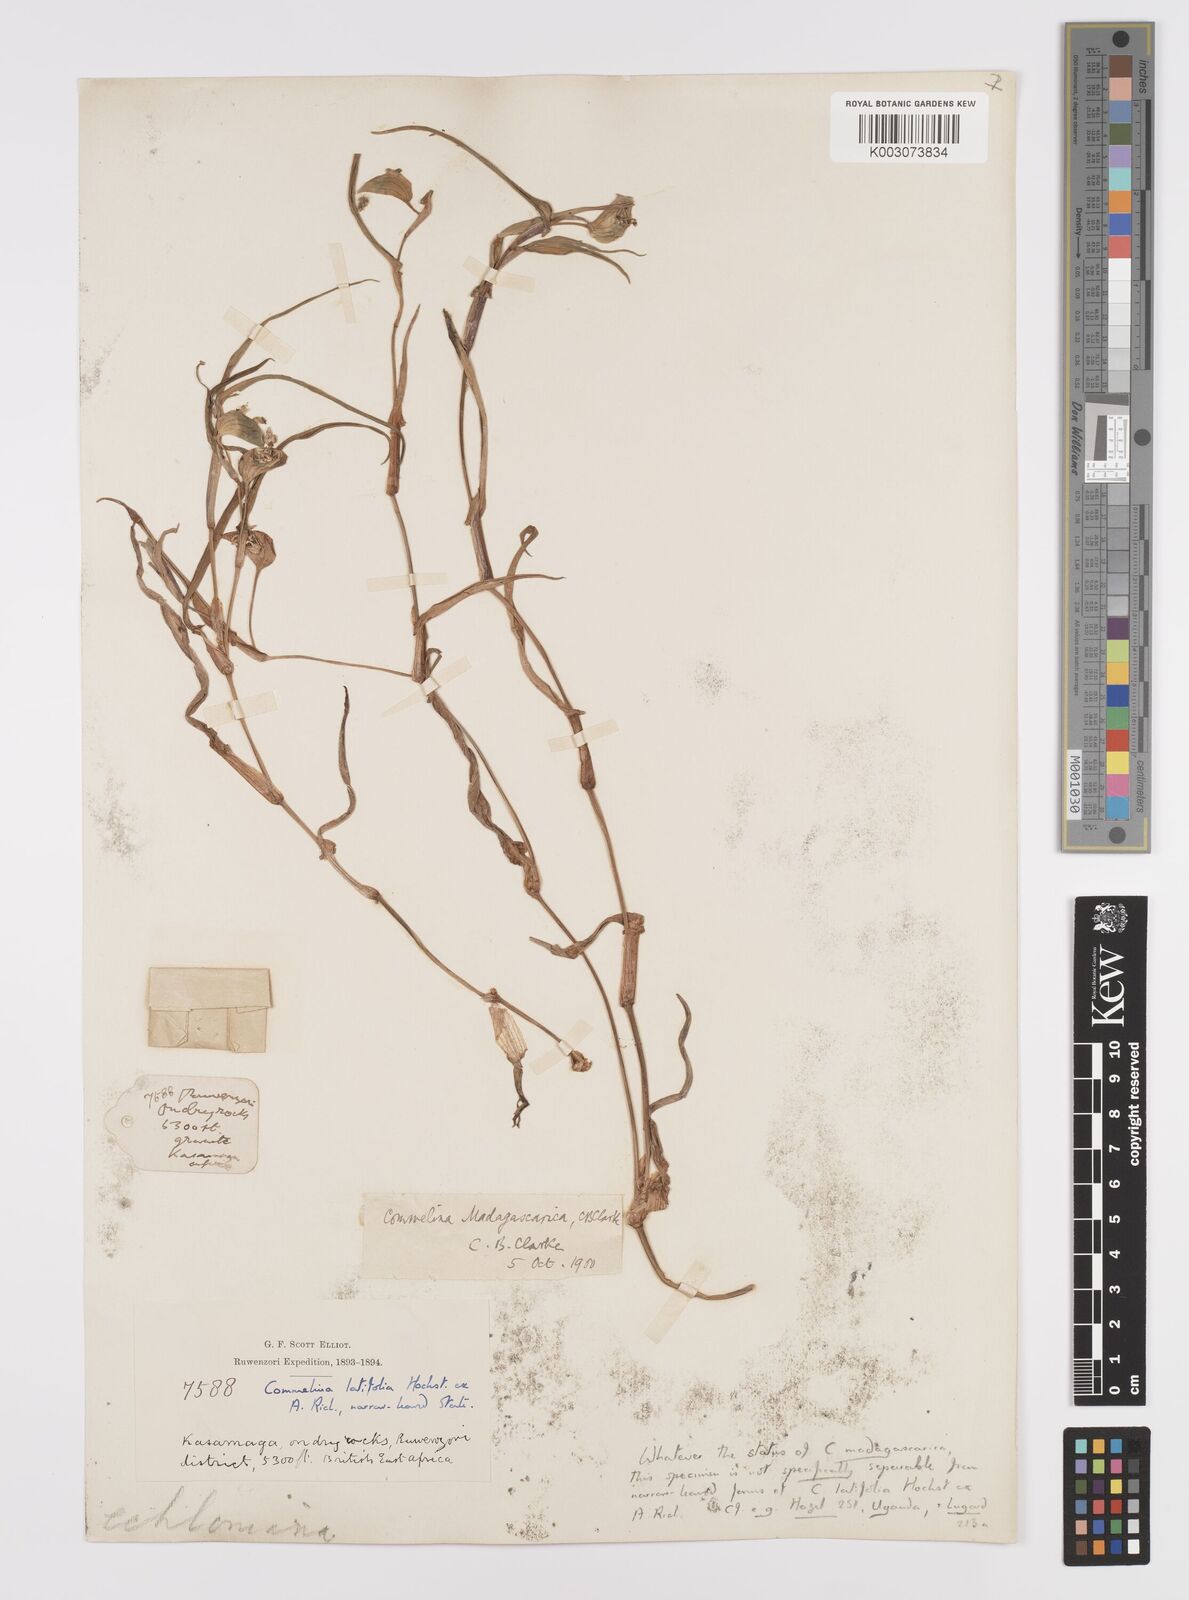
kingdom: Plantae
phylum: Tracheophyta
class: Liliopsida
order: Commelinales
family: Commelinaceae
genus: Commelina
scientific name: Commelina latifolia
